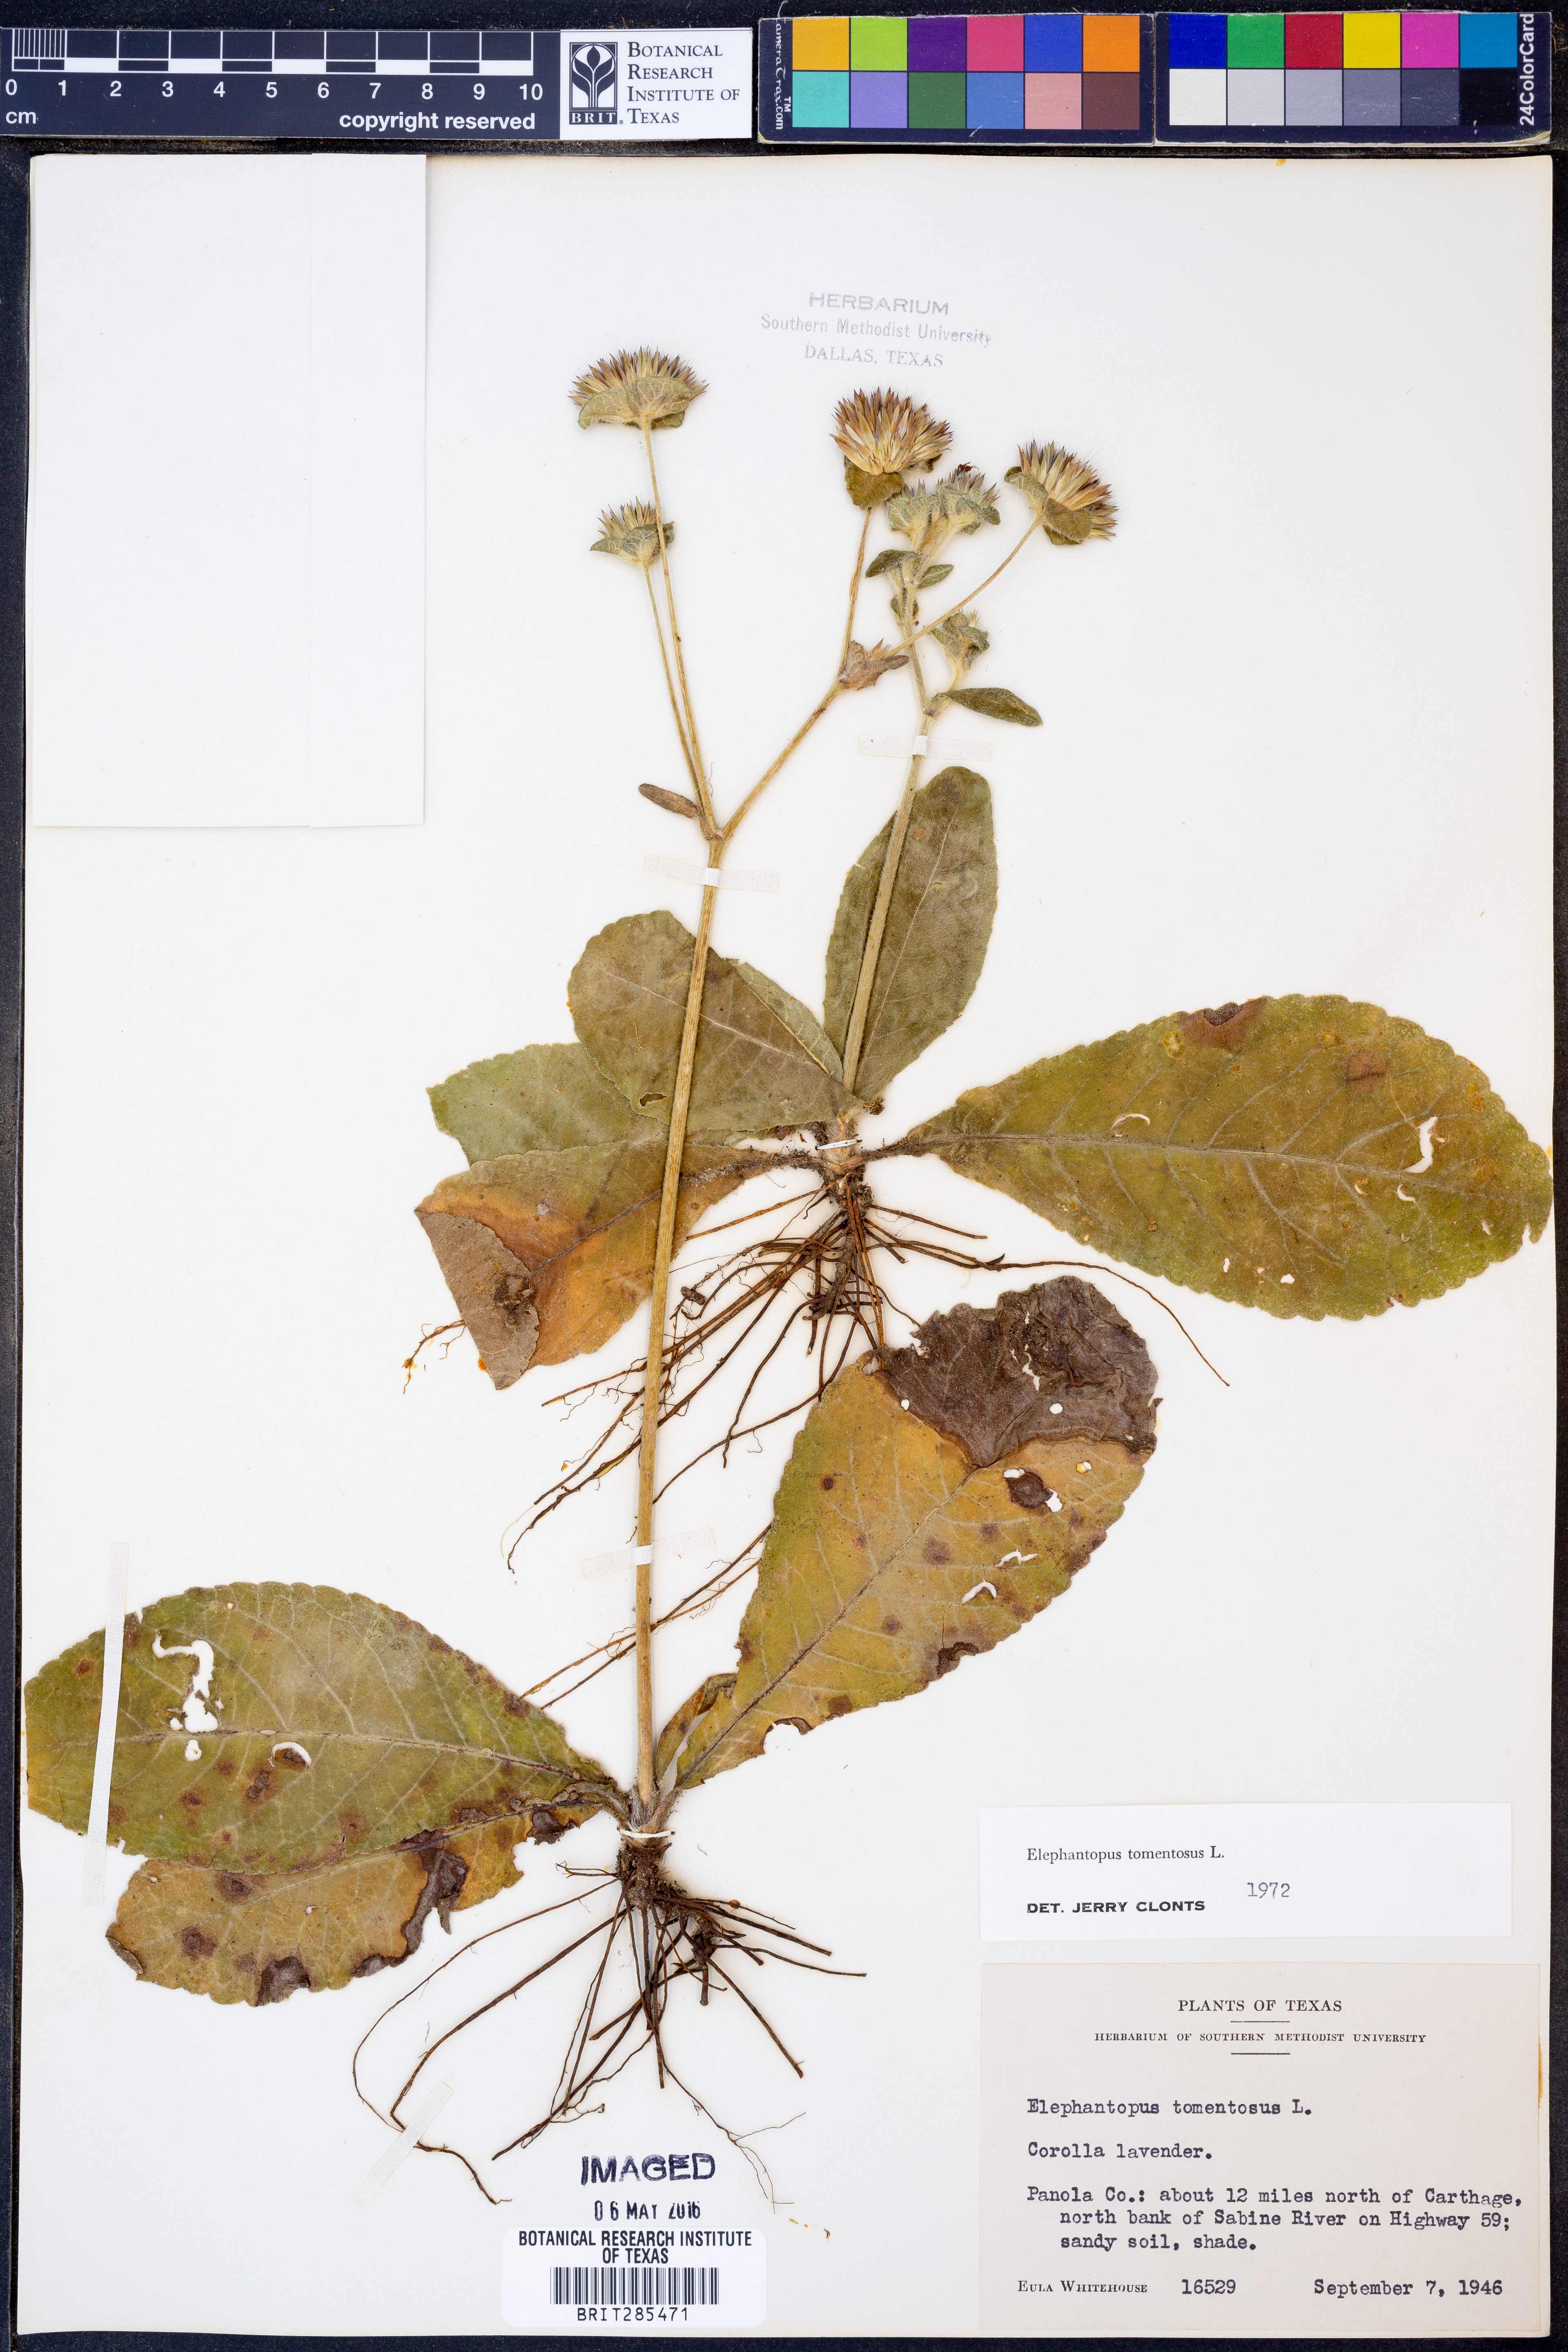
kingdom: Plantae
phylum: Tracheophyta
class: Magnoliopsida
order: Asterales
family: Asteraceae
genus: Elephantopus
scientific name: Elephantopus tomentosus
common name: Tobacco-weed
